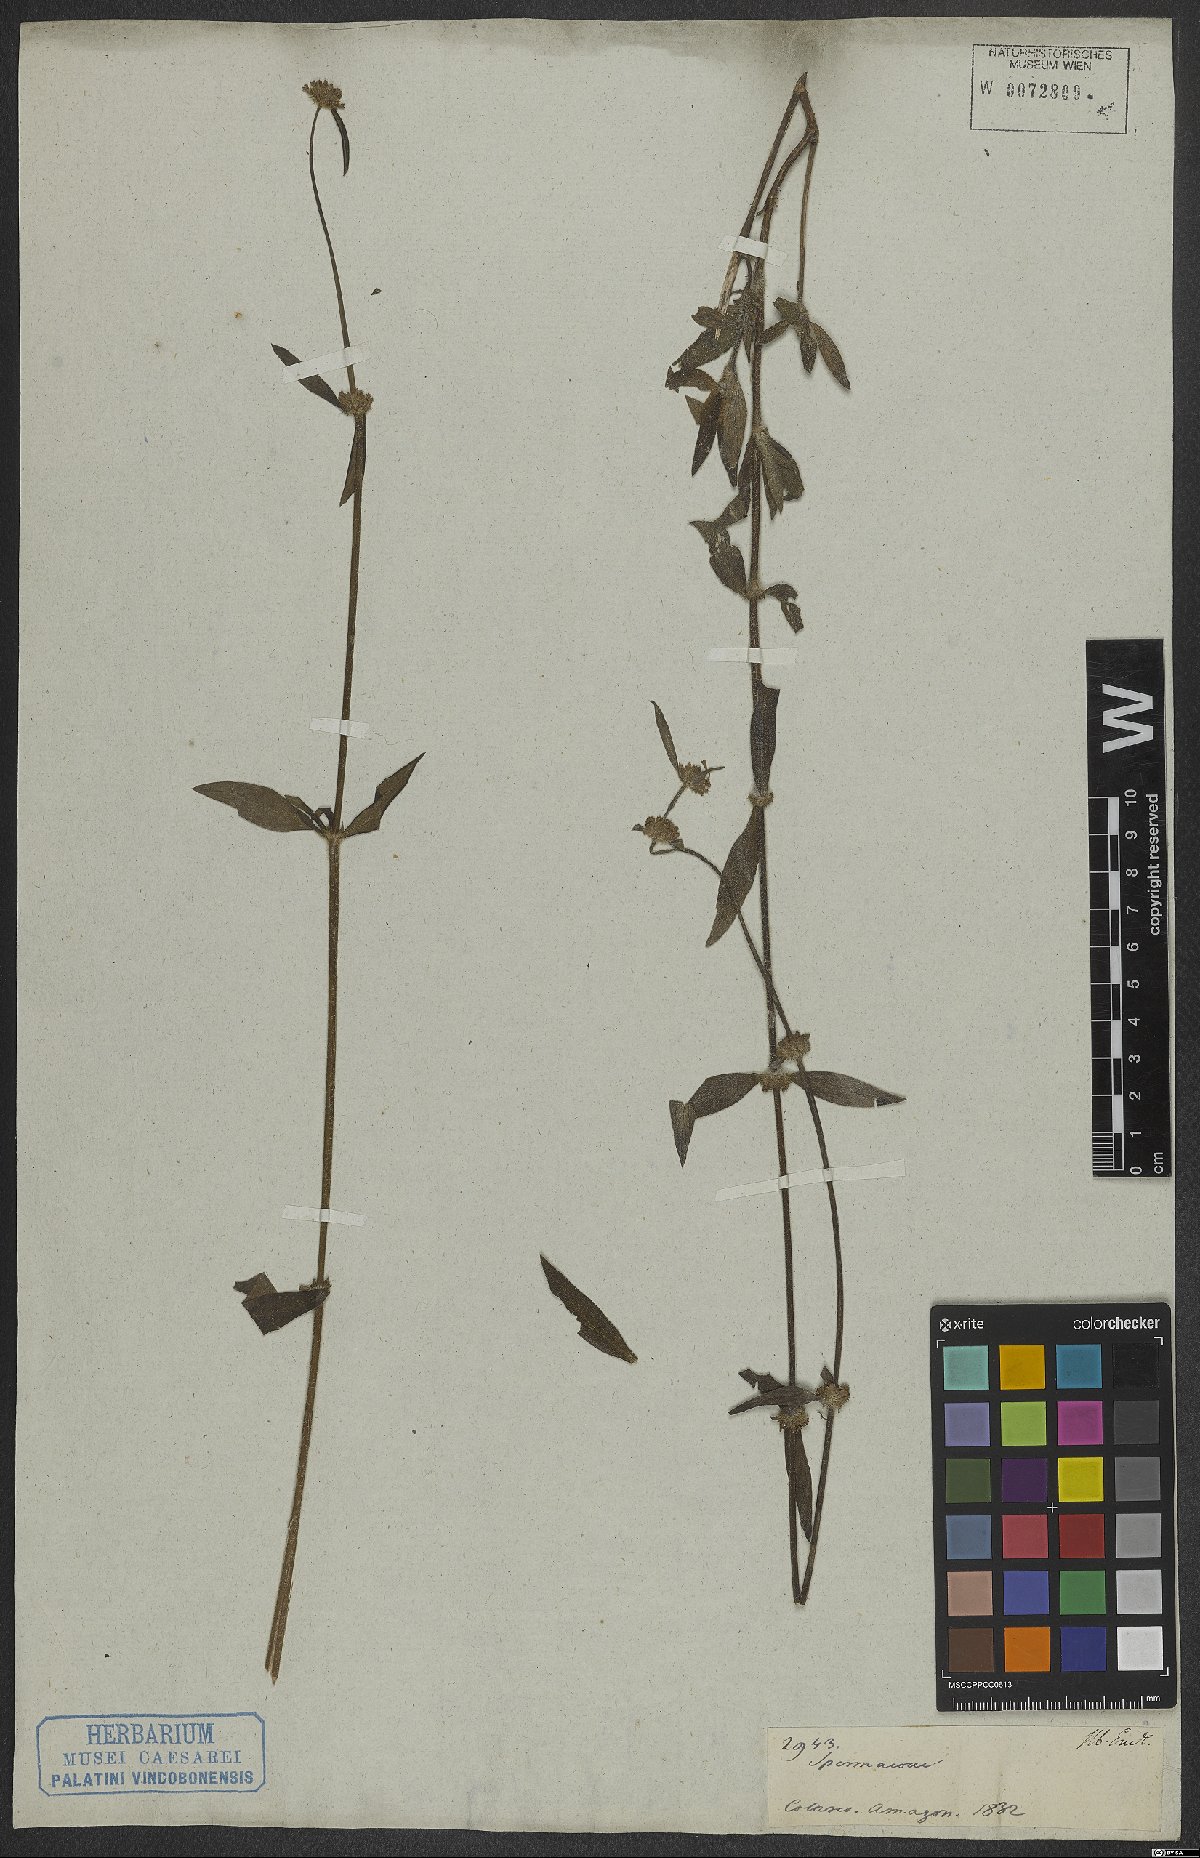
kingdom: Plantae
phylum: Tracheophyta
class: Magnoliopsida
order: Gentianales
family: Rubiaceae
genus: Spermacoce
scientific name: Spermacoce
